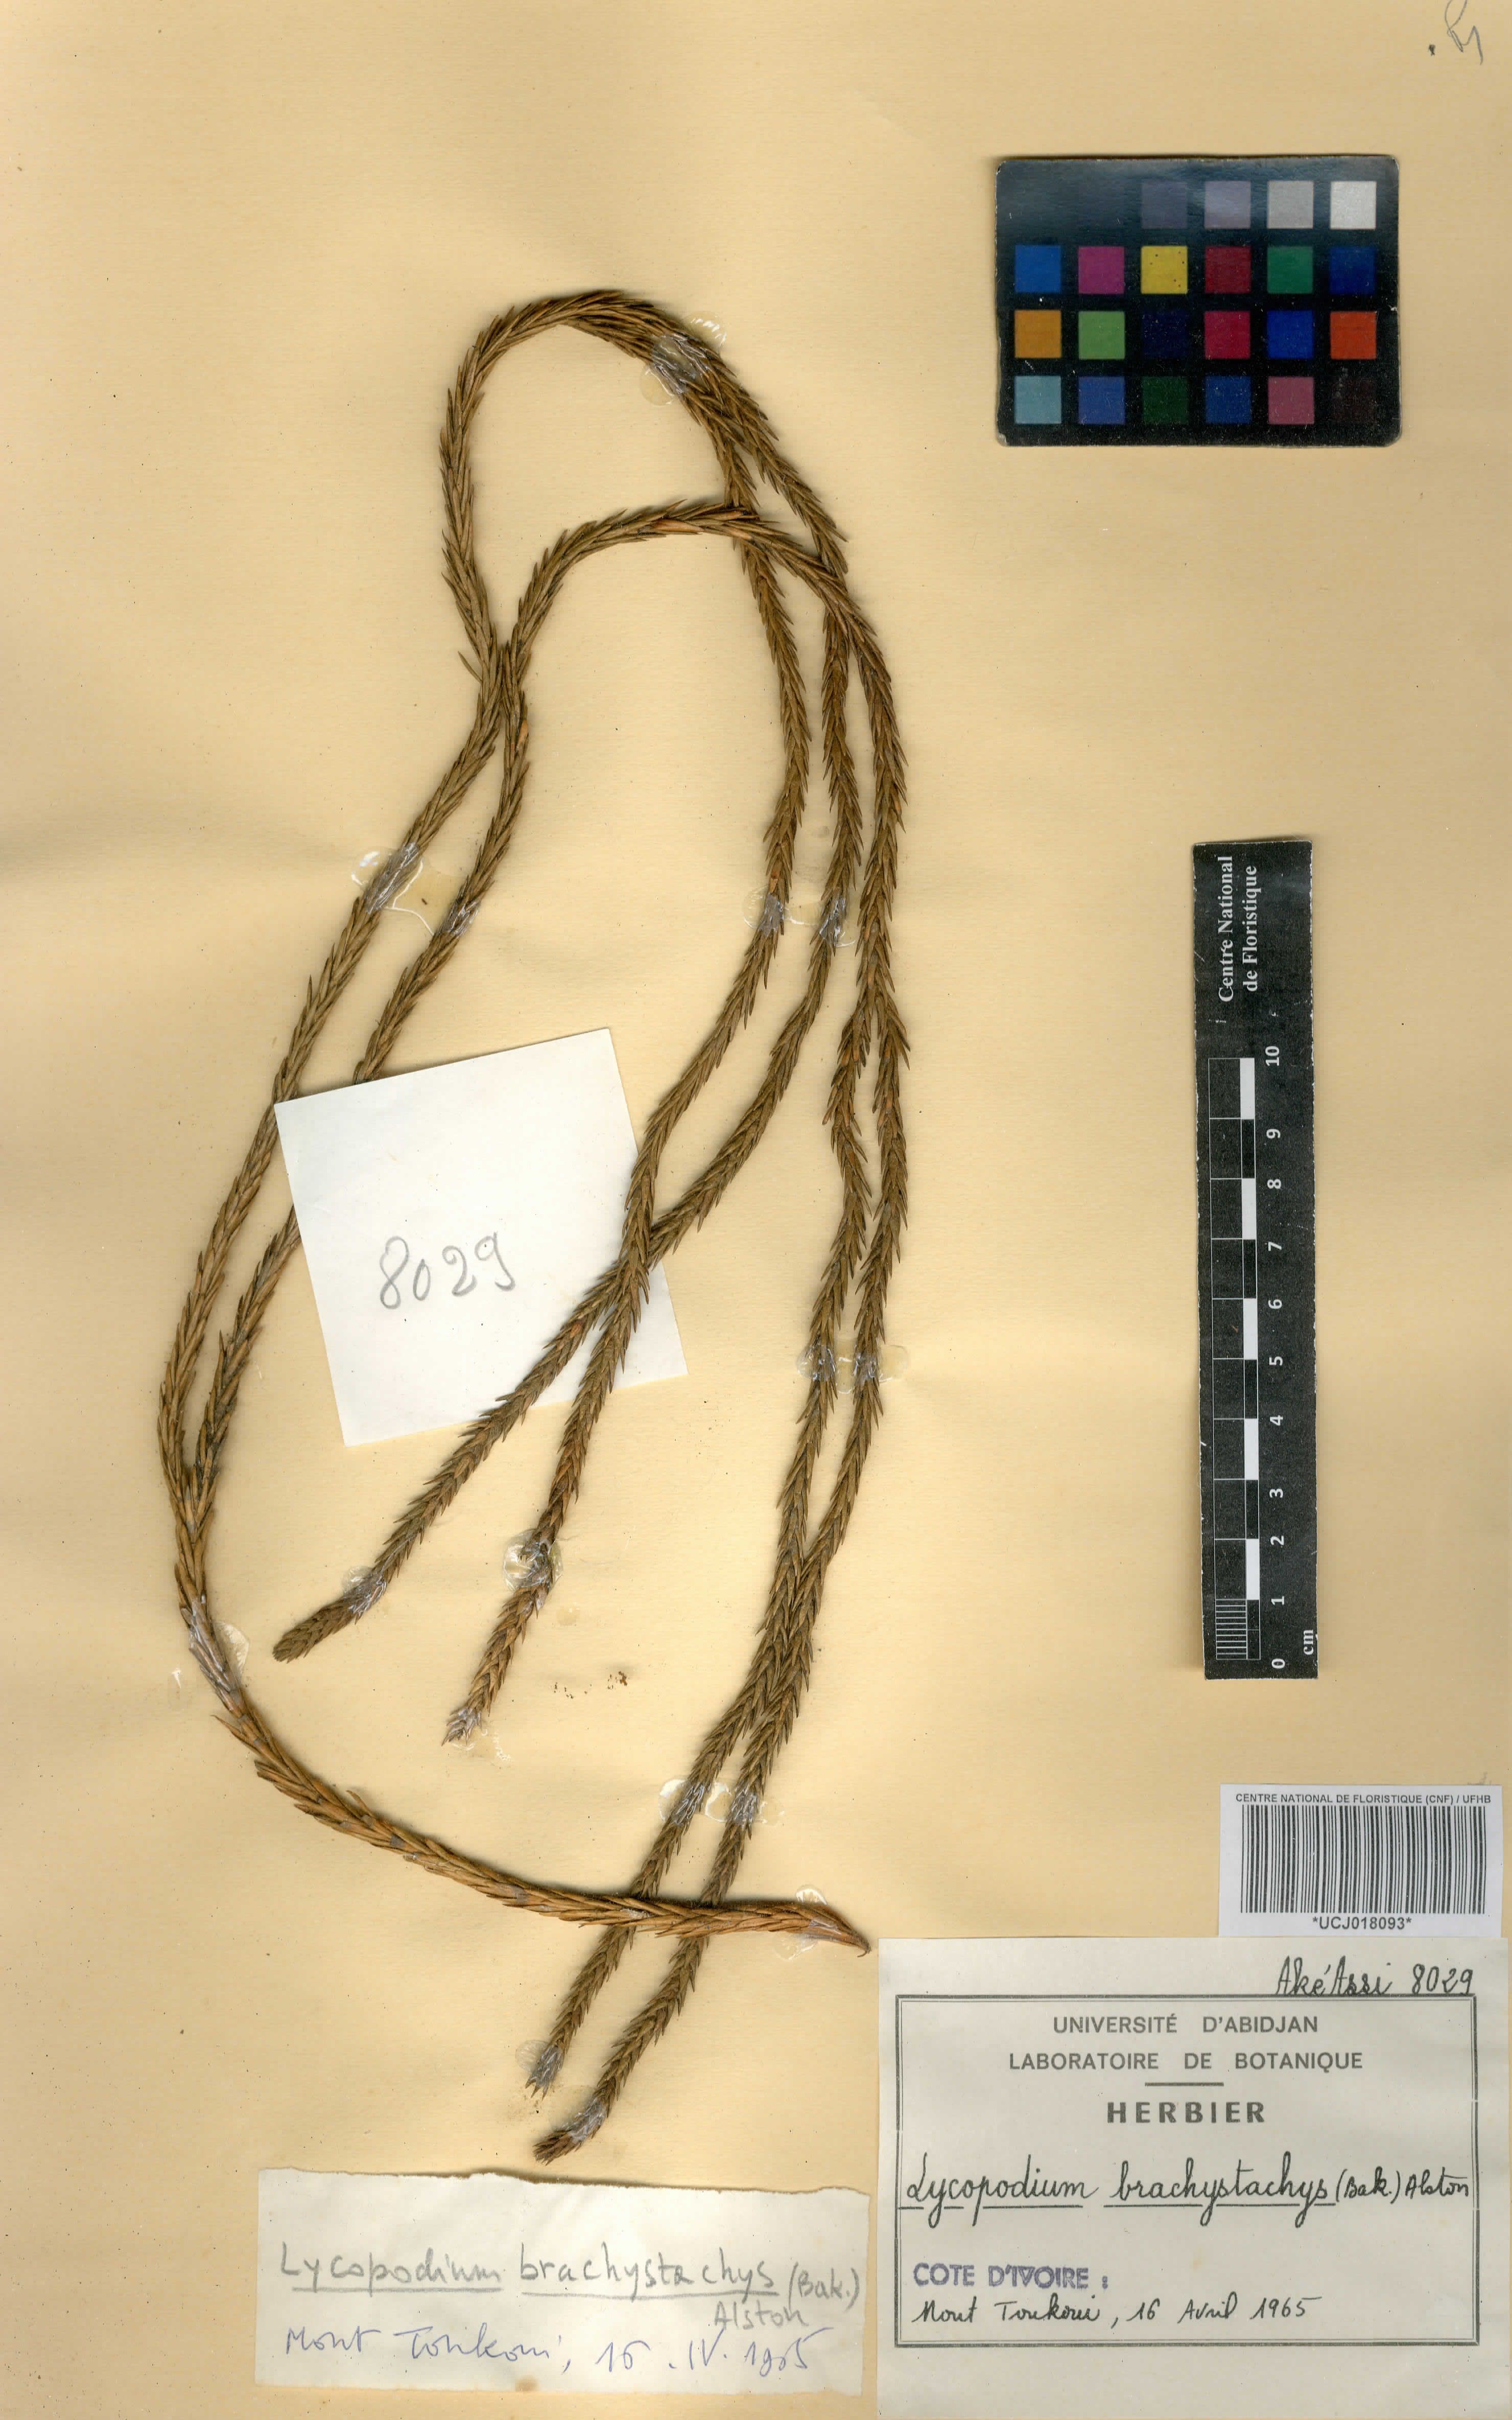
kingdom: Plantae
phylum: Tracheophyta
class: Lycopodiopsida
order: Lycopodiales
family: Lycopodiaceae
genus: Phlegmariurus
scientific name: Phlegmariurus brachystachys
